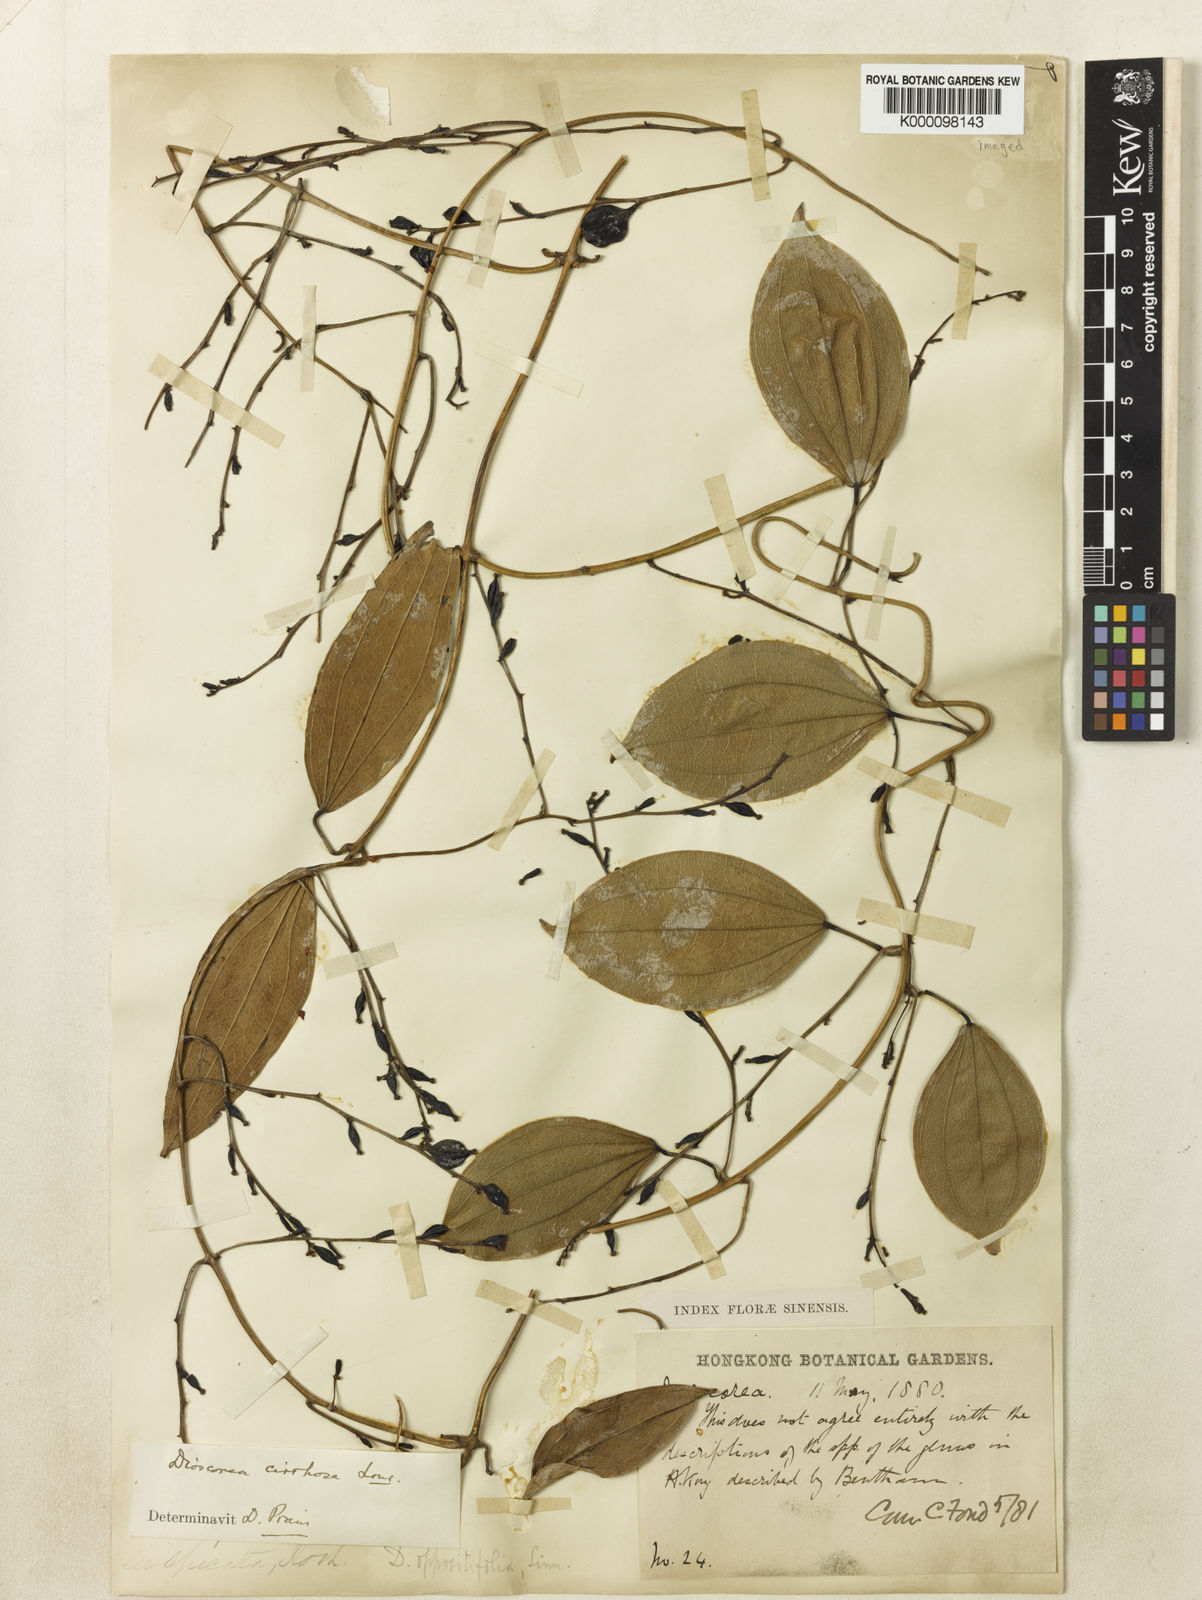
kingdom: Plantae
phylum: Tracheophyta
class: Liliopsida
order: Dioscoreales
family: Dioscoreaceae
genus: Dioscorea
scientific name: Dioscorea cirrhosa
